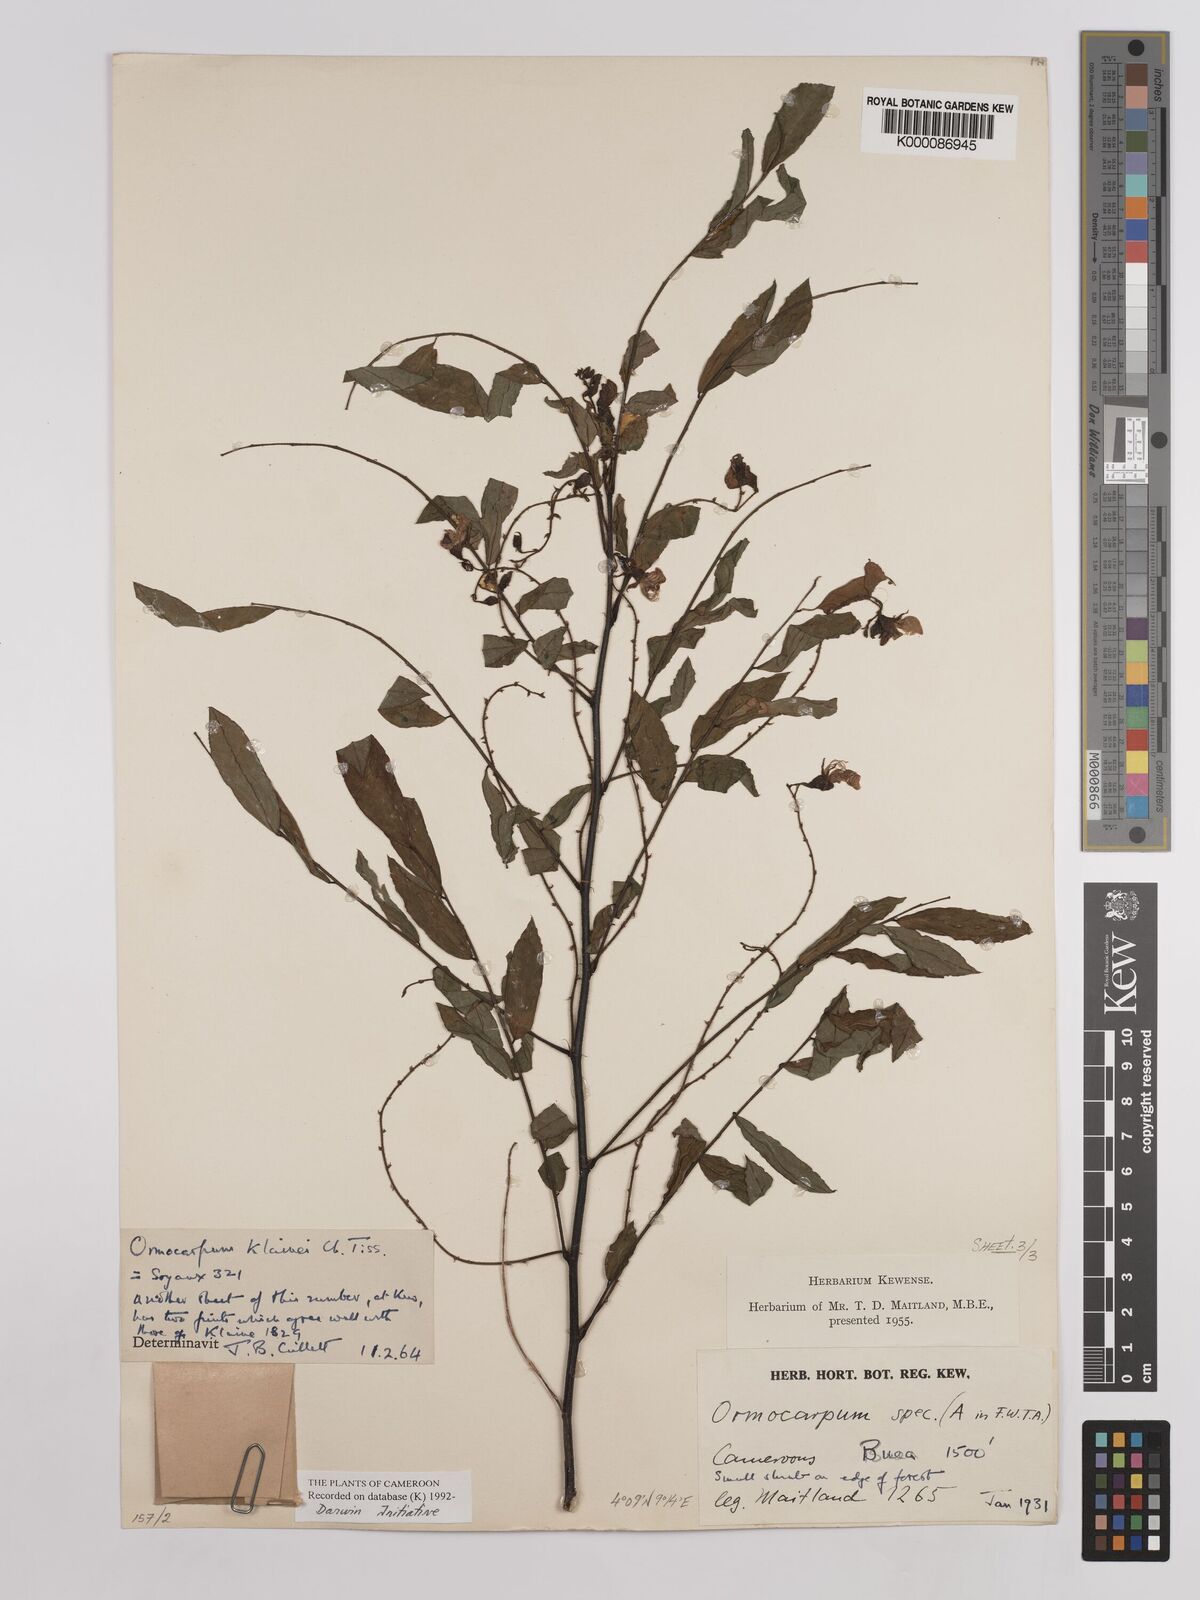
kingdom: Plantae
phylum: Tracheophyta
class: Magnoliopsida
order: Fabales
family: Fabaceae
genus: Ormocarpum
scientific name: Ormocarpum klainei
